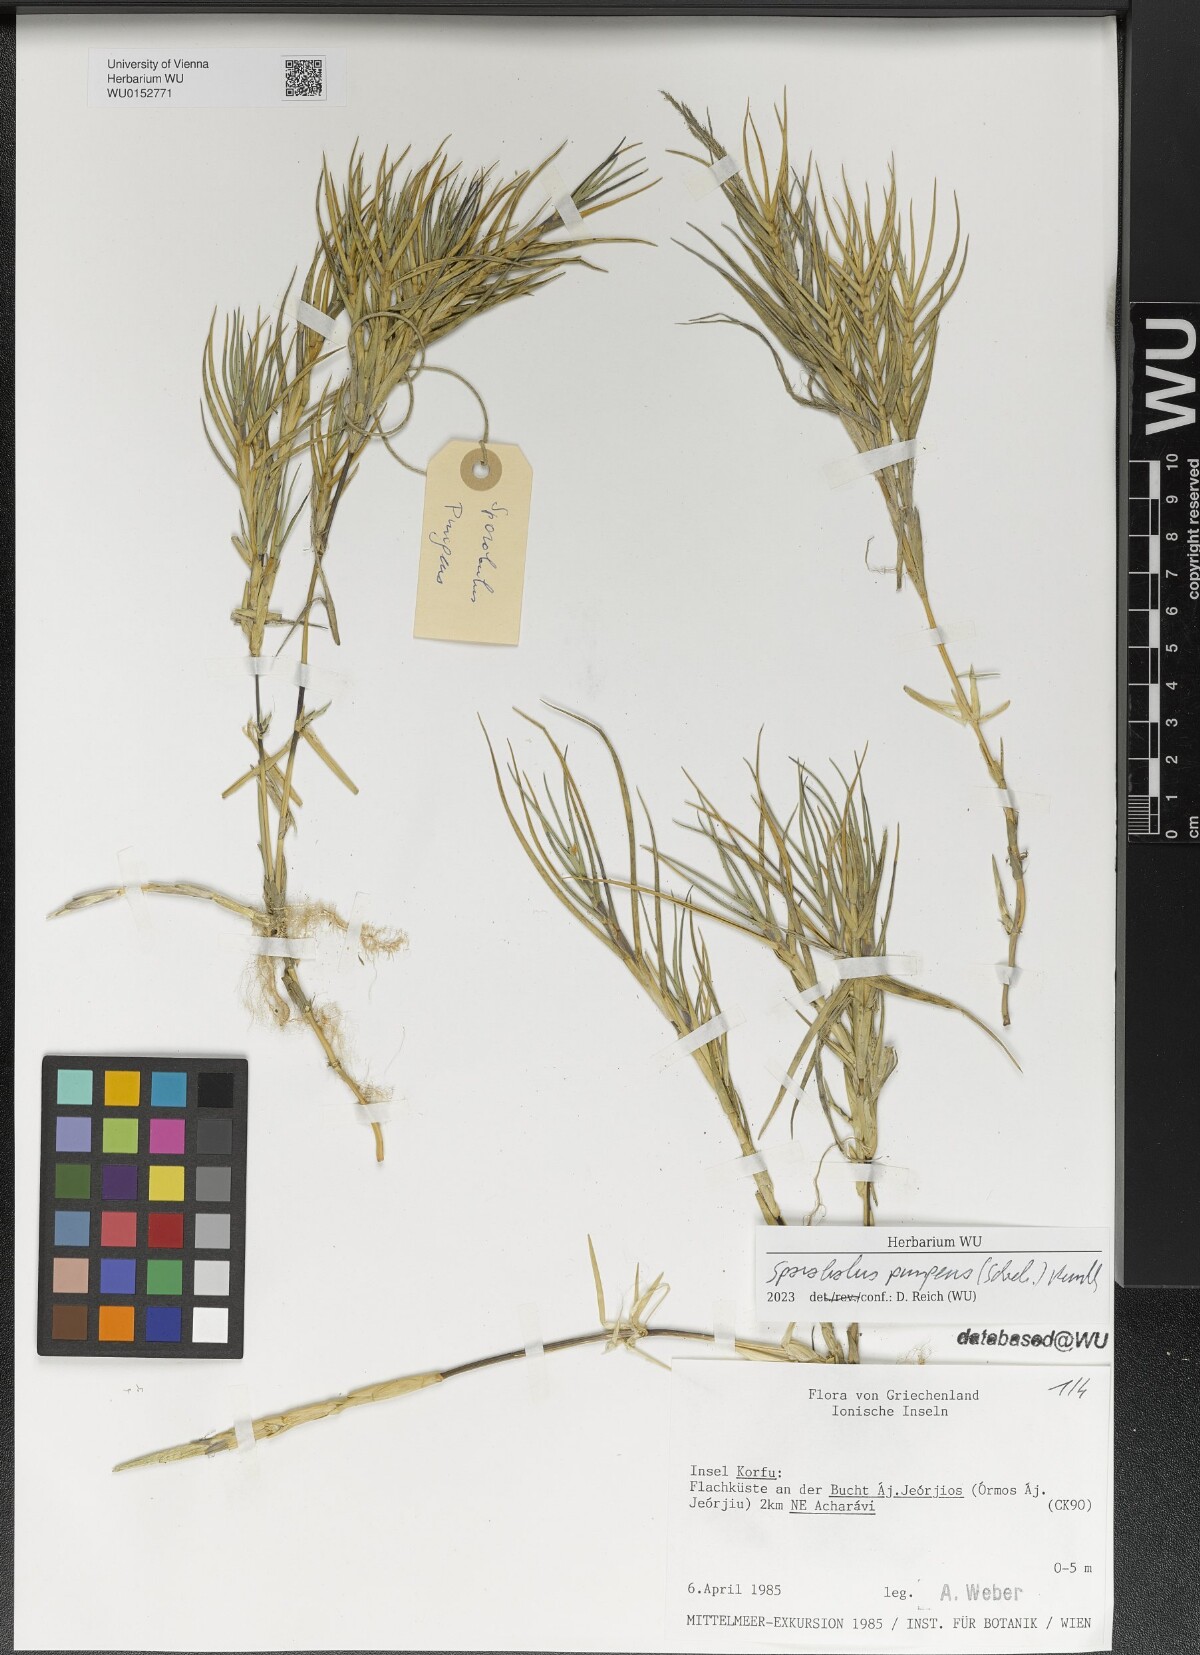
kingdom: Plantae
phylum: Tracheophyta
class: Liliopsida
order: Poales
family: Poaceae
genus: Sporobolus
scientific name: Sporobolus pungens
